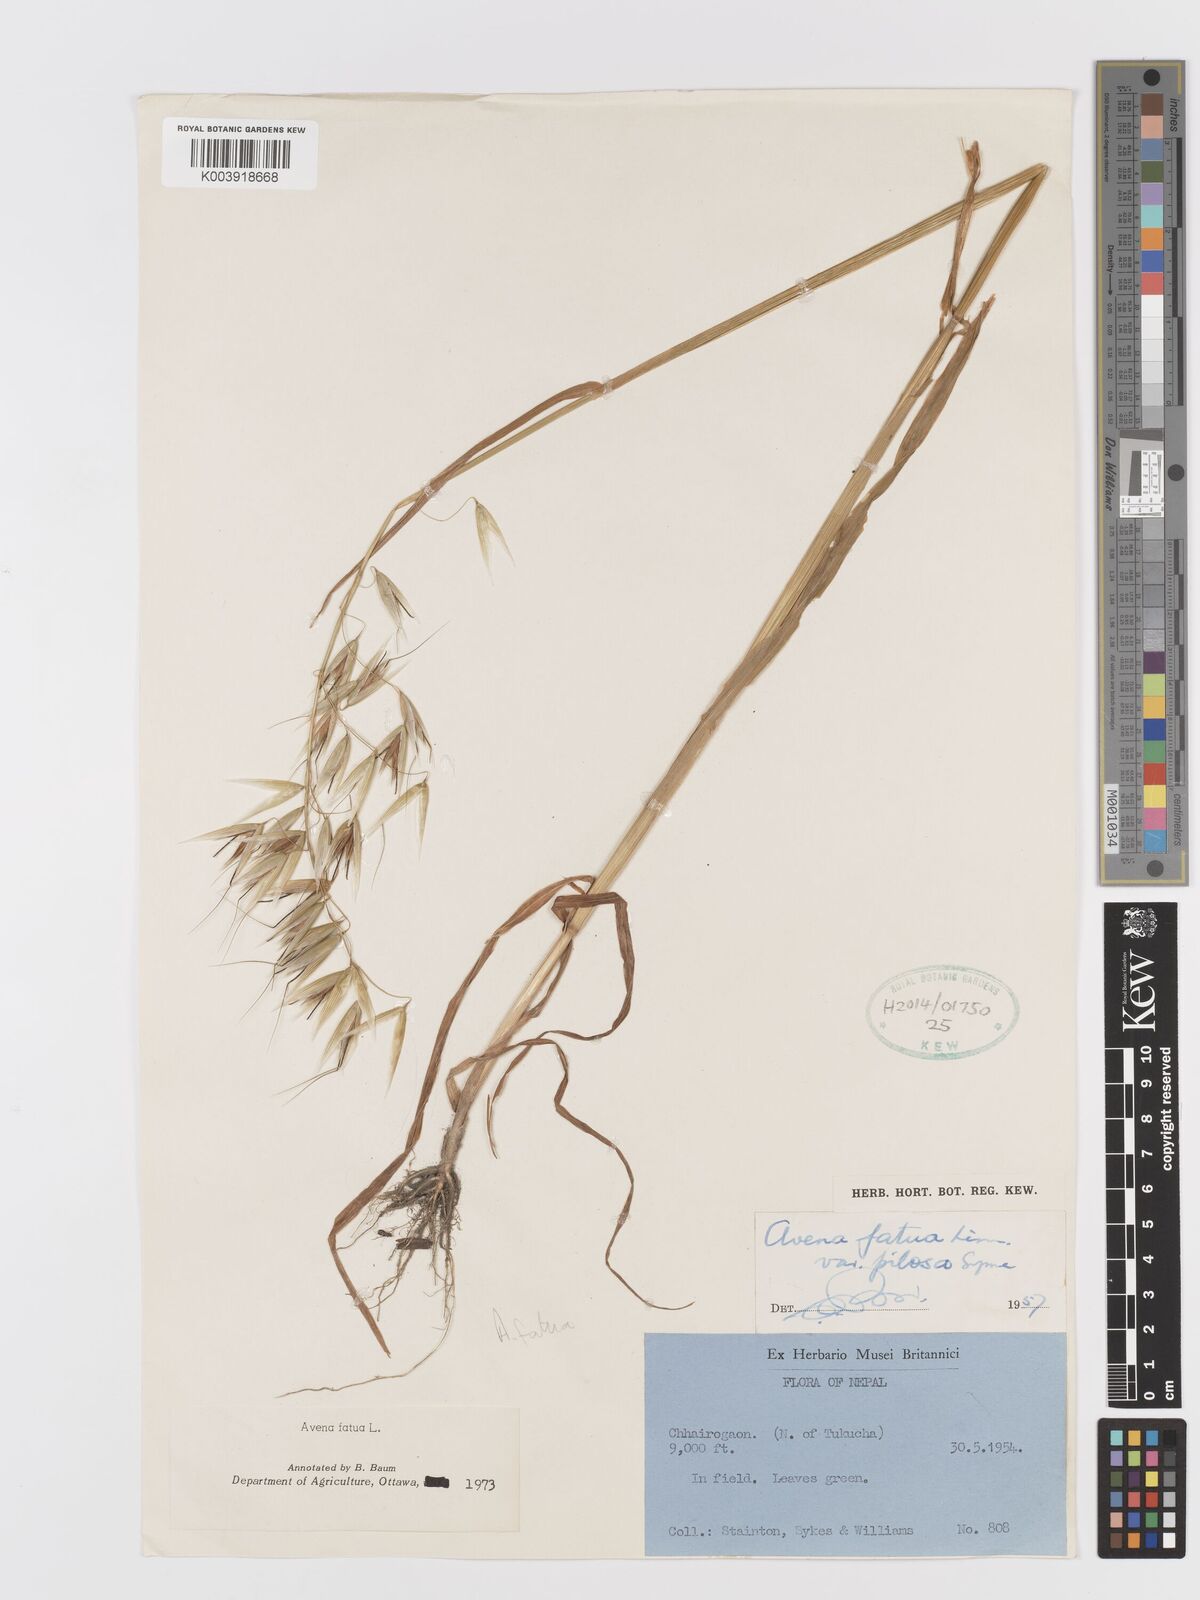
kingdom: Plantae
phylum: Tracheophyta
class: Liliopsida
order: Poales
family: Poaceae
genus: Avena
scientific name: Avena fatua
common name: Wild oat
